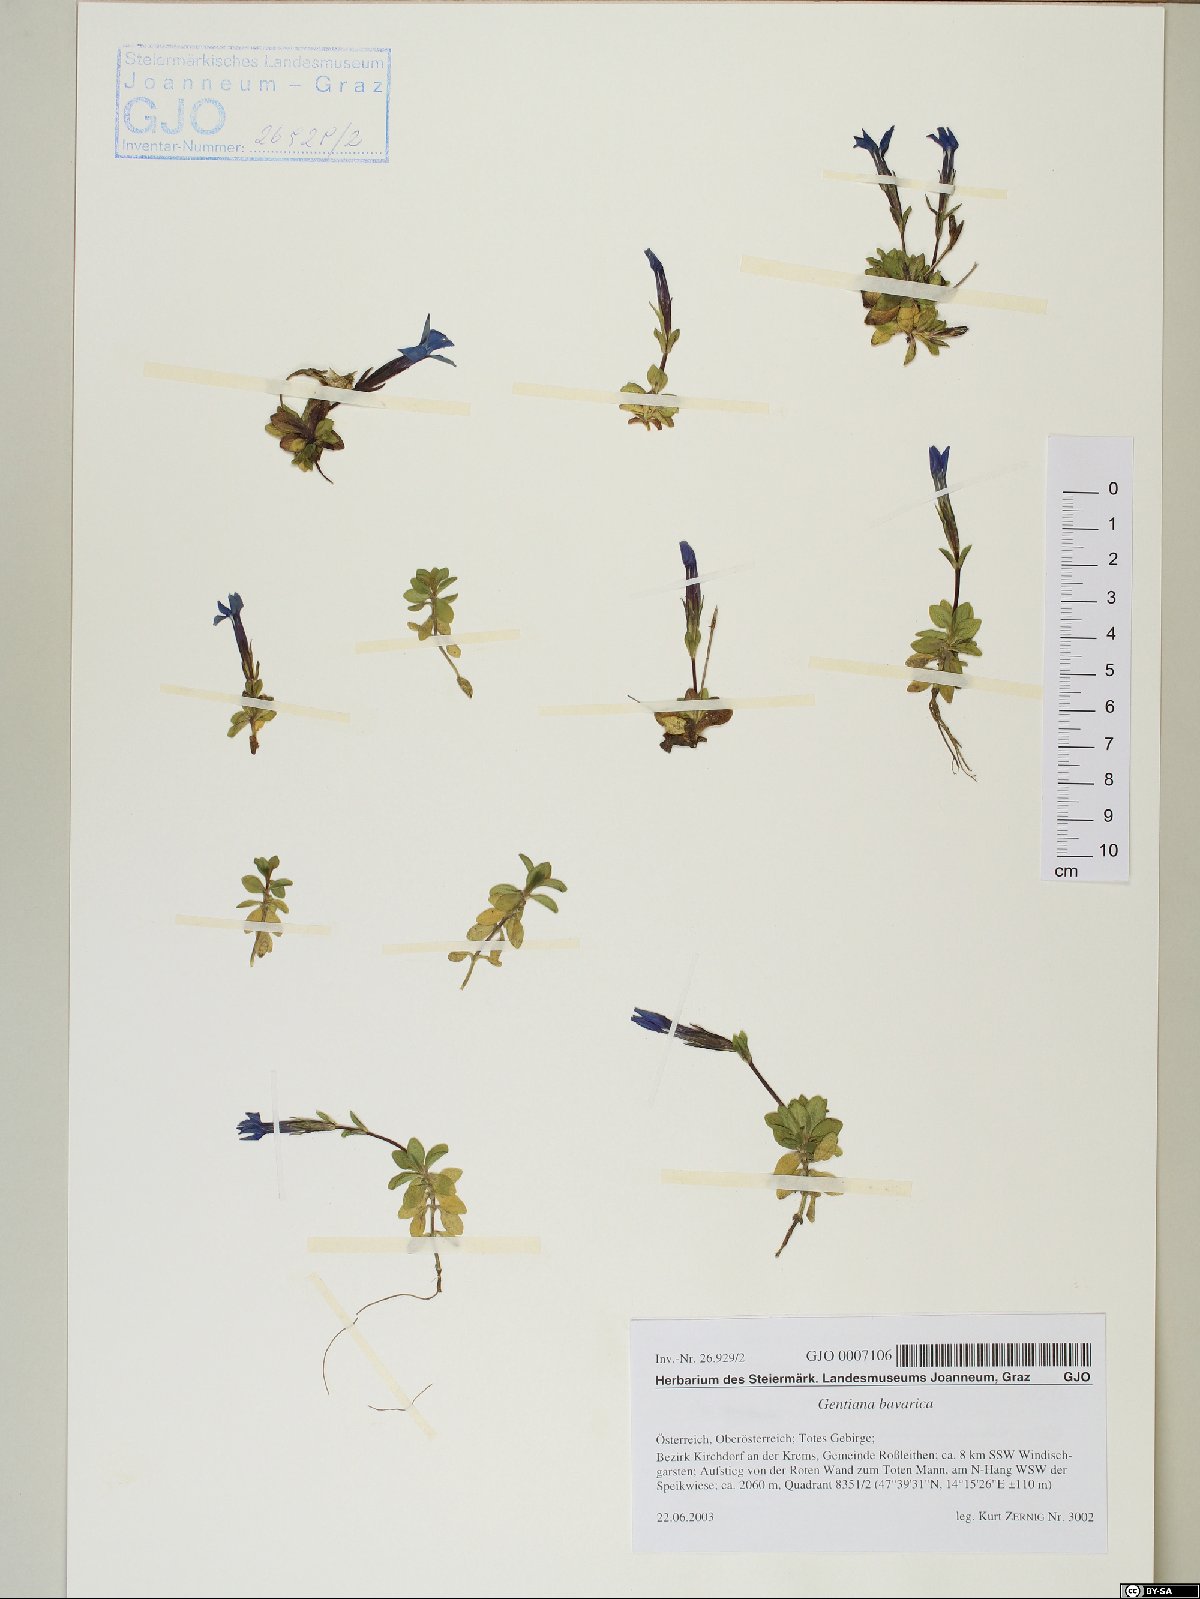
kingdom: Plantae
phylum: Tracheophyta
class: Magnoliopsida
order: Gentianales
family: Gentianaceae
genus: Gentiana
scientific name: Gentiana bavarica
